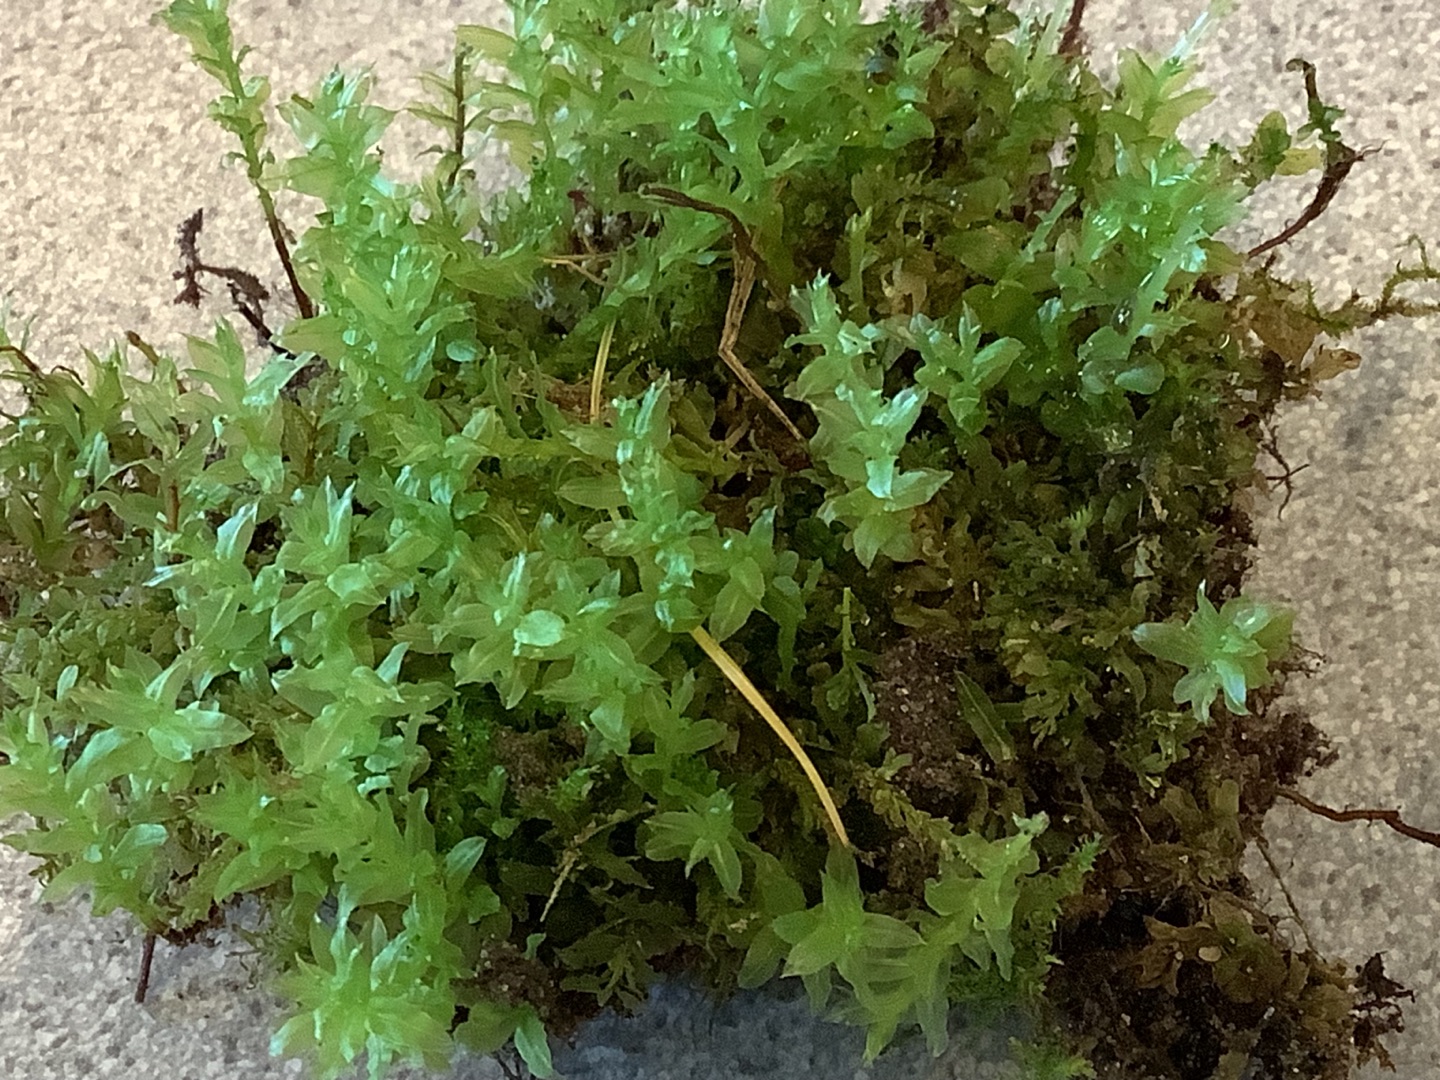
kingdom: Plantae
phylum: Bryophyta
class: Bryopsida
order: Bryales
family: Mniaceae
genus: Plagiomnium
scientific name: Plagiomnium undulatum
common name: Bølget krybstjerne
